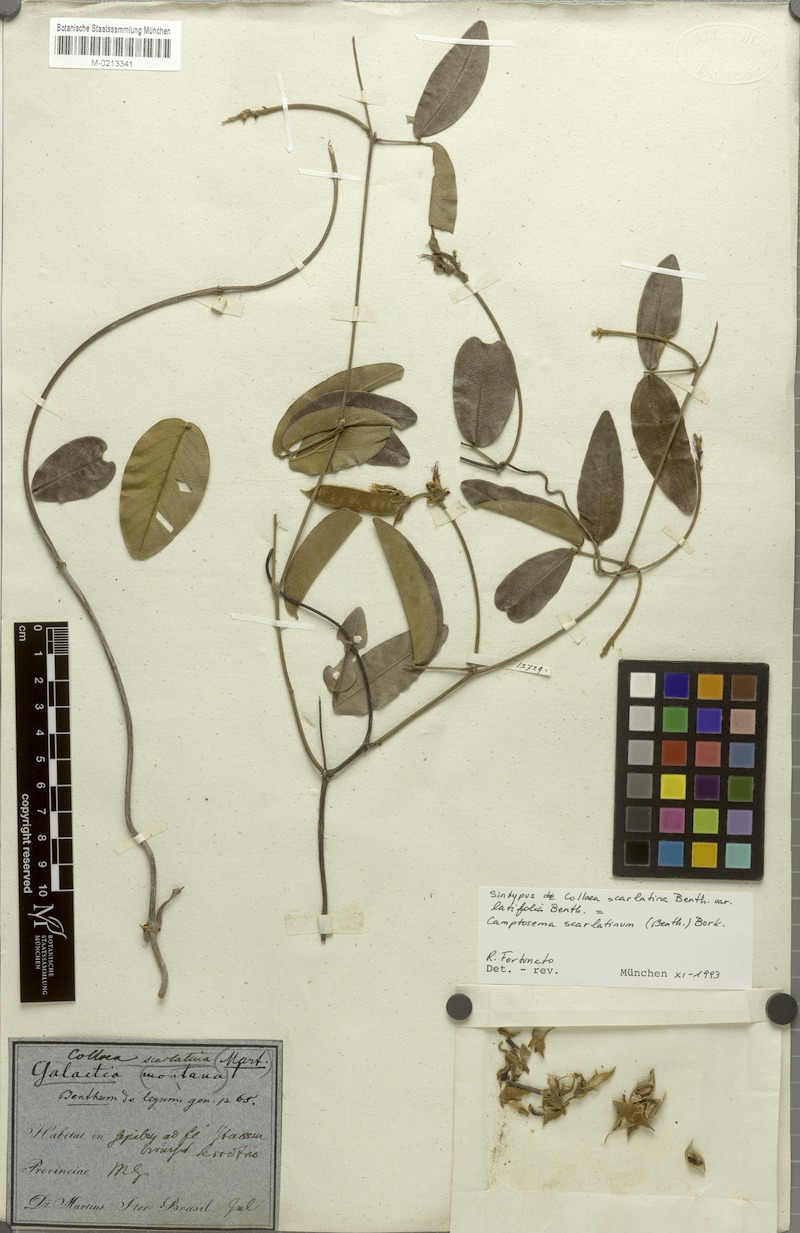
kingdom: Plantae
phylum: Tracheophyta
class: Magnoliopsida
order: Fabales
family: Fabaceae
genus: Betencourtia
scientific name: Betencourtia scarlatina
